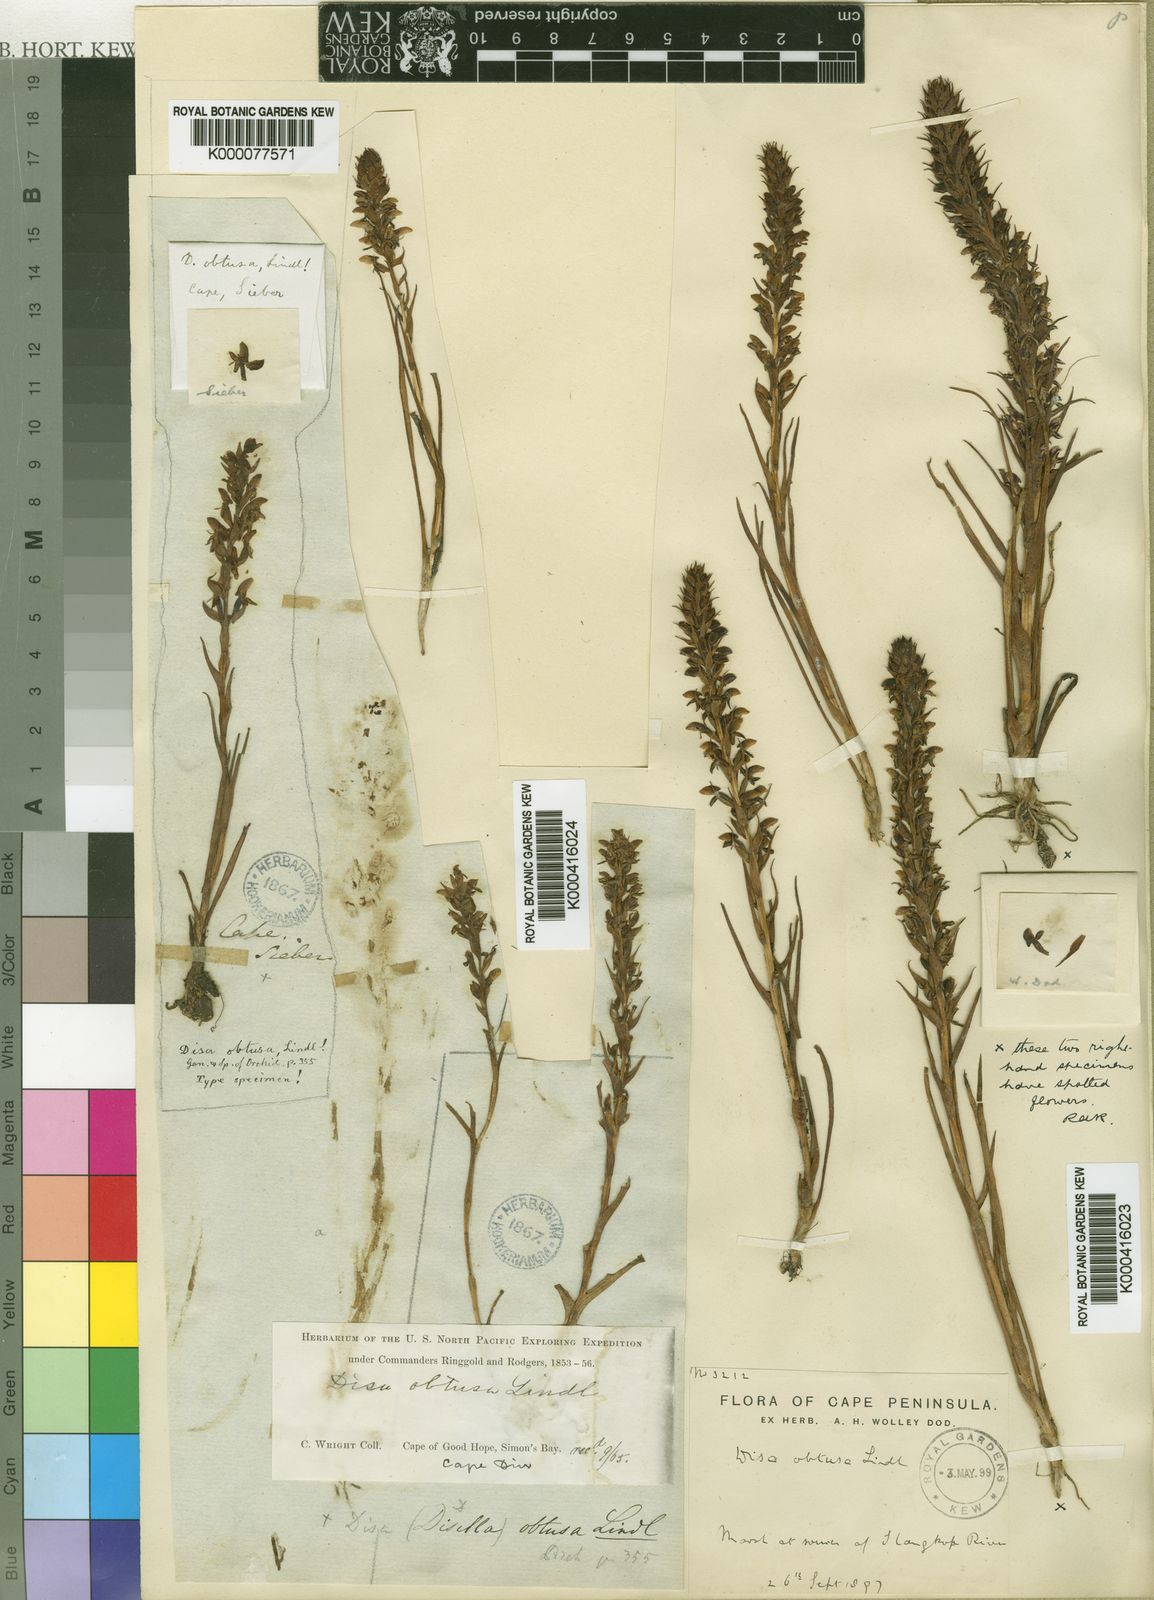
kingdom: Plantae
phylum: Tracheophyta
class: Liliopsida
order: Asparagales
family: Orchidaceae
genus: Disa
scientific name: Disa obtusa
